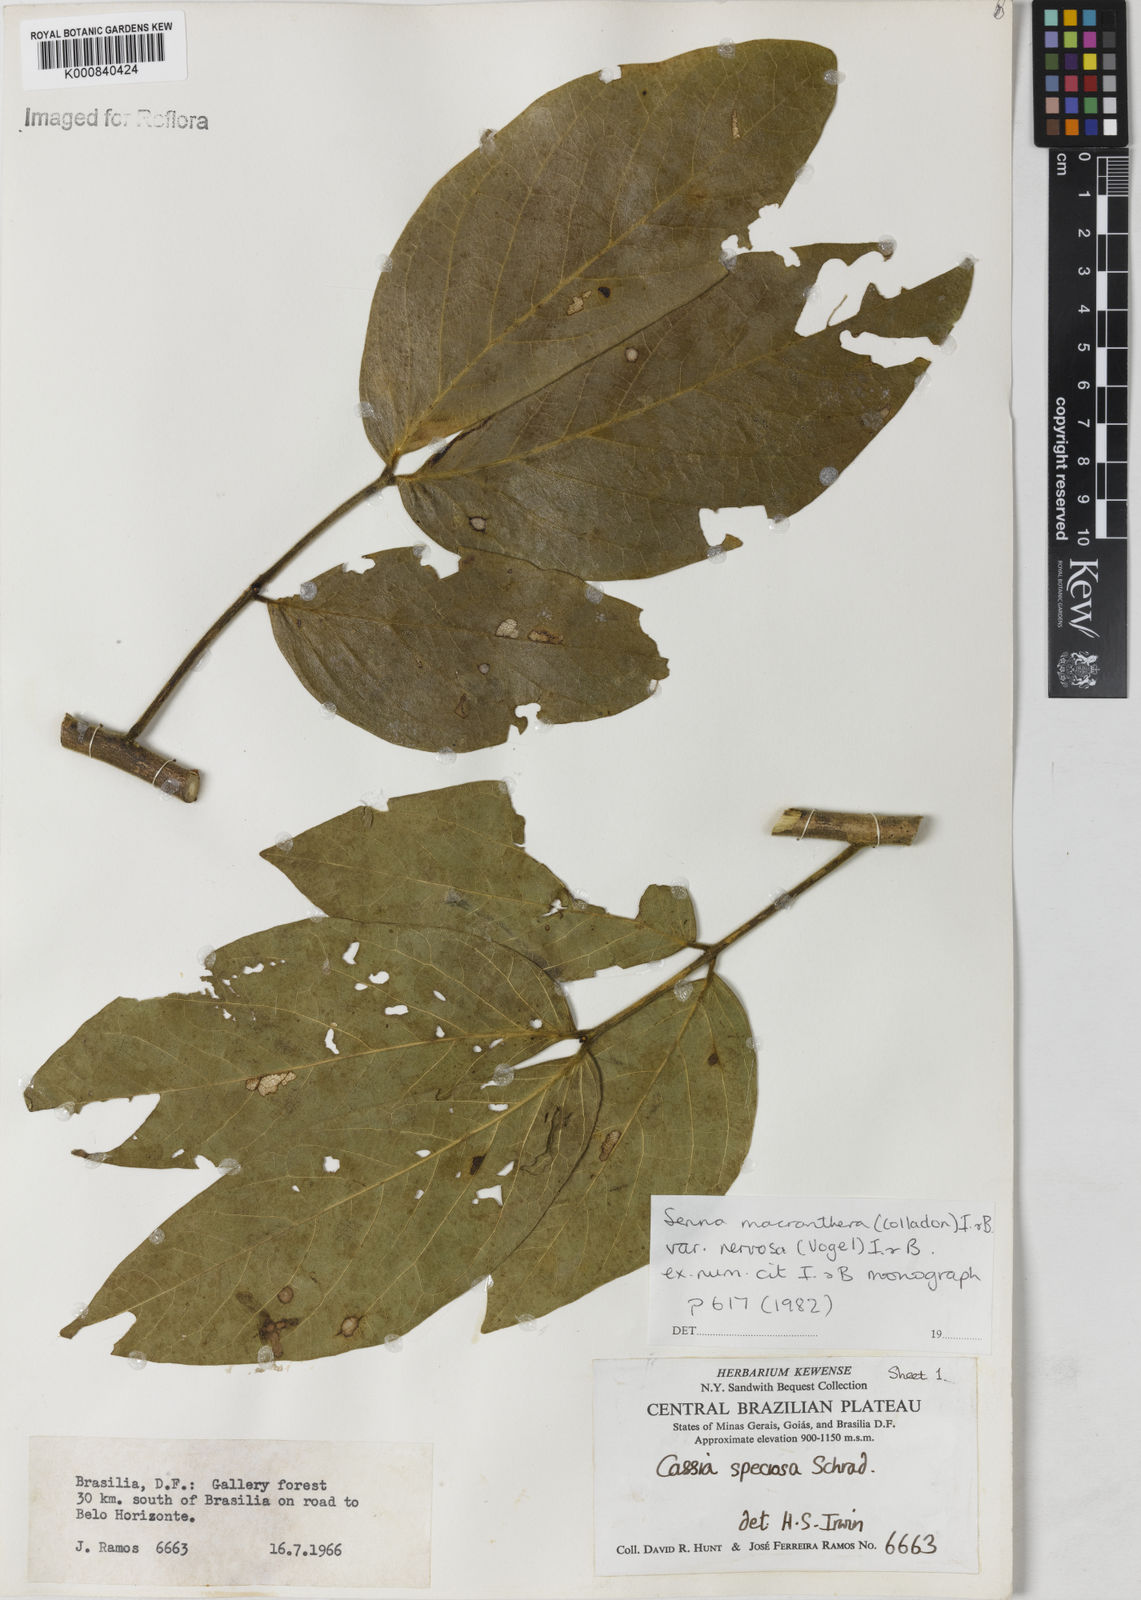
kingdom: Plantae
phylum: Tracheophyta
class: Magnoliopsida
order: Fabales
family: Fabaceae
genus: Senna
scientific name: Senna macranthera
